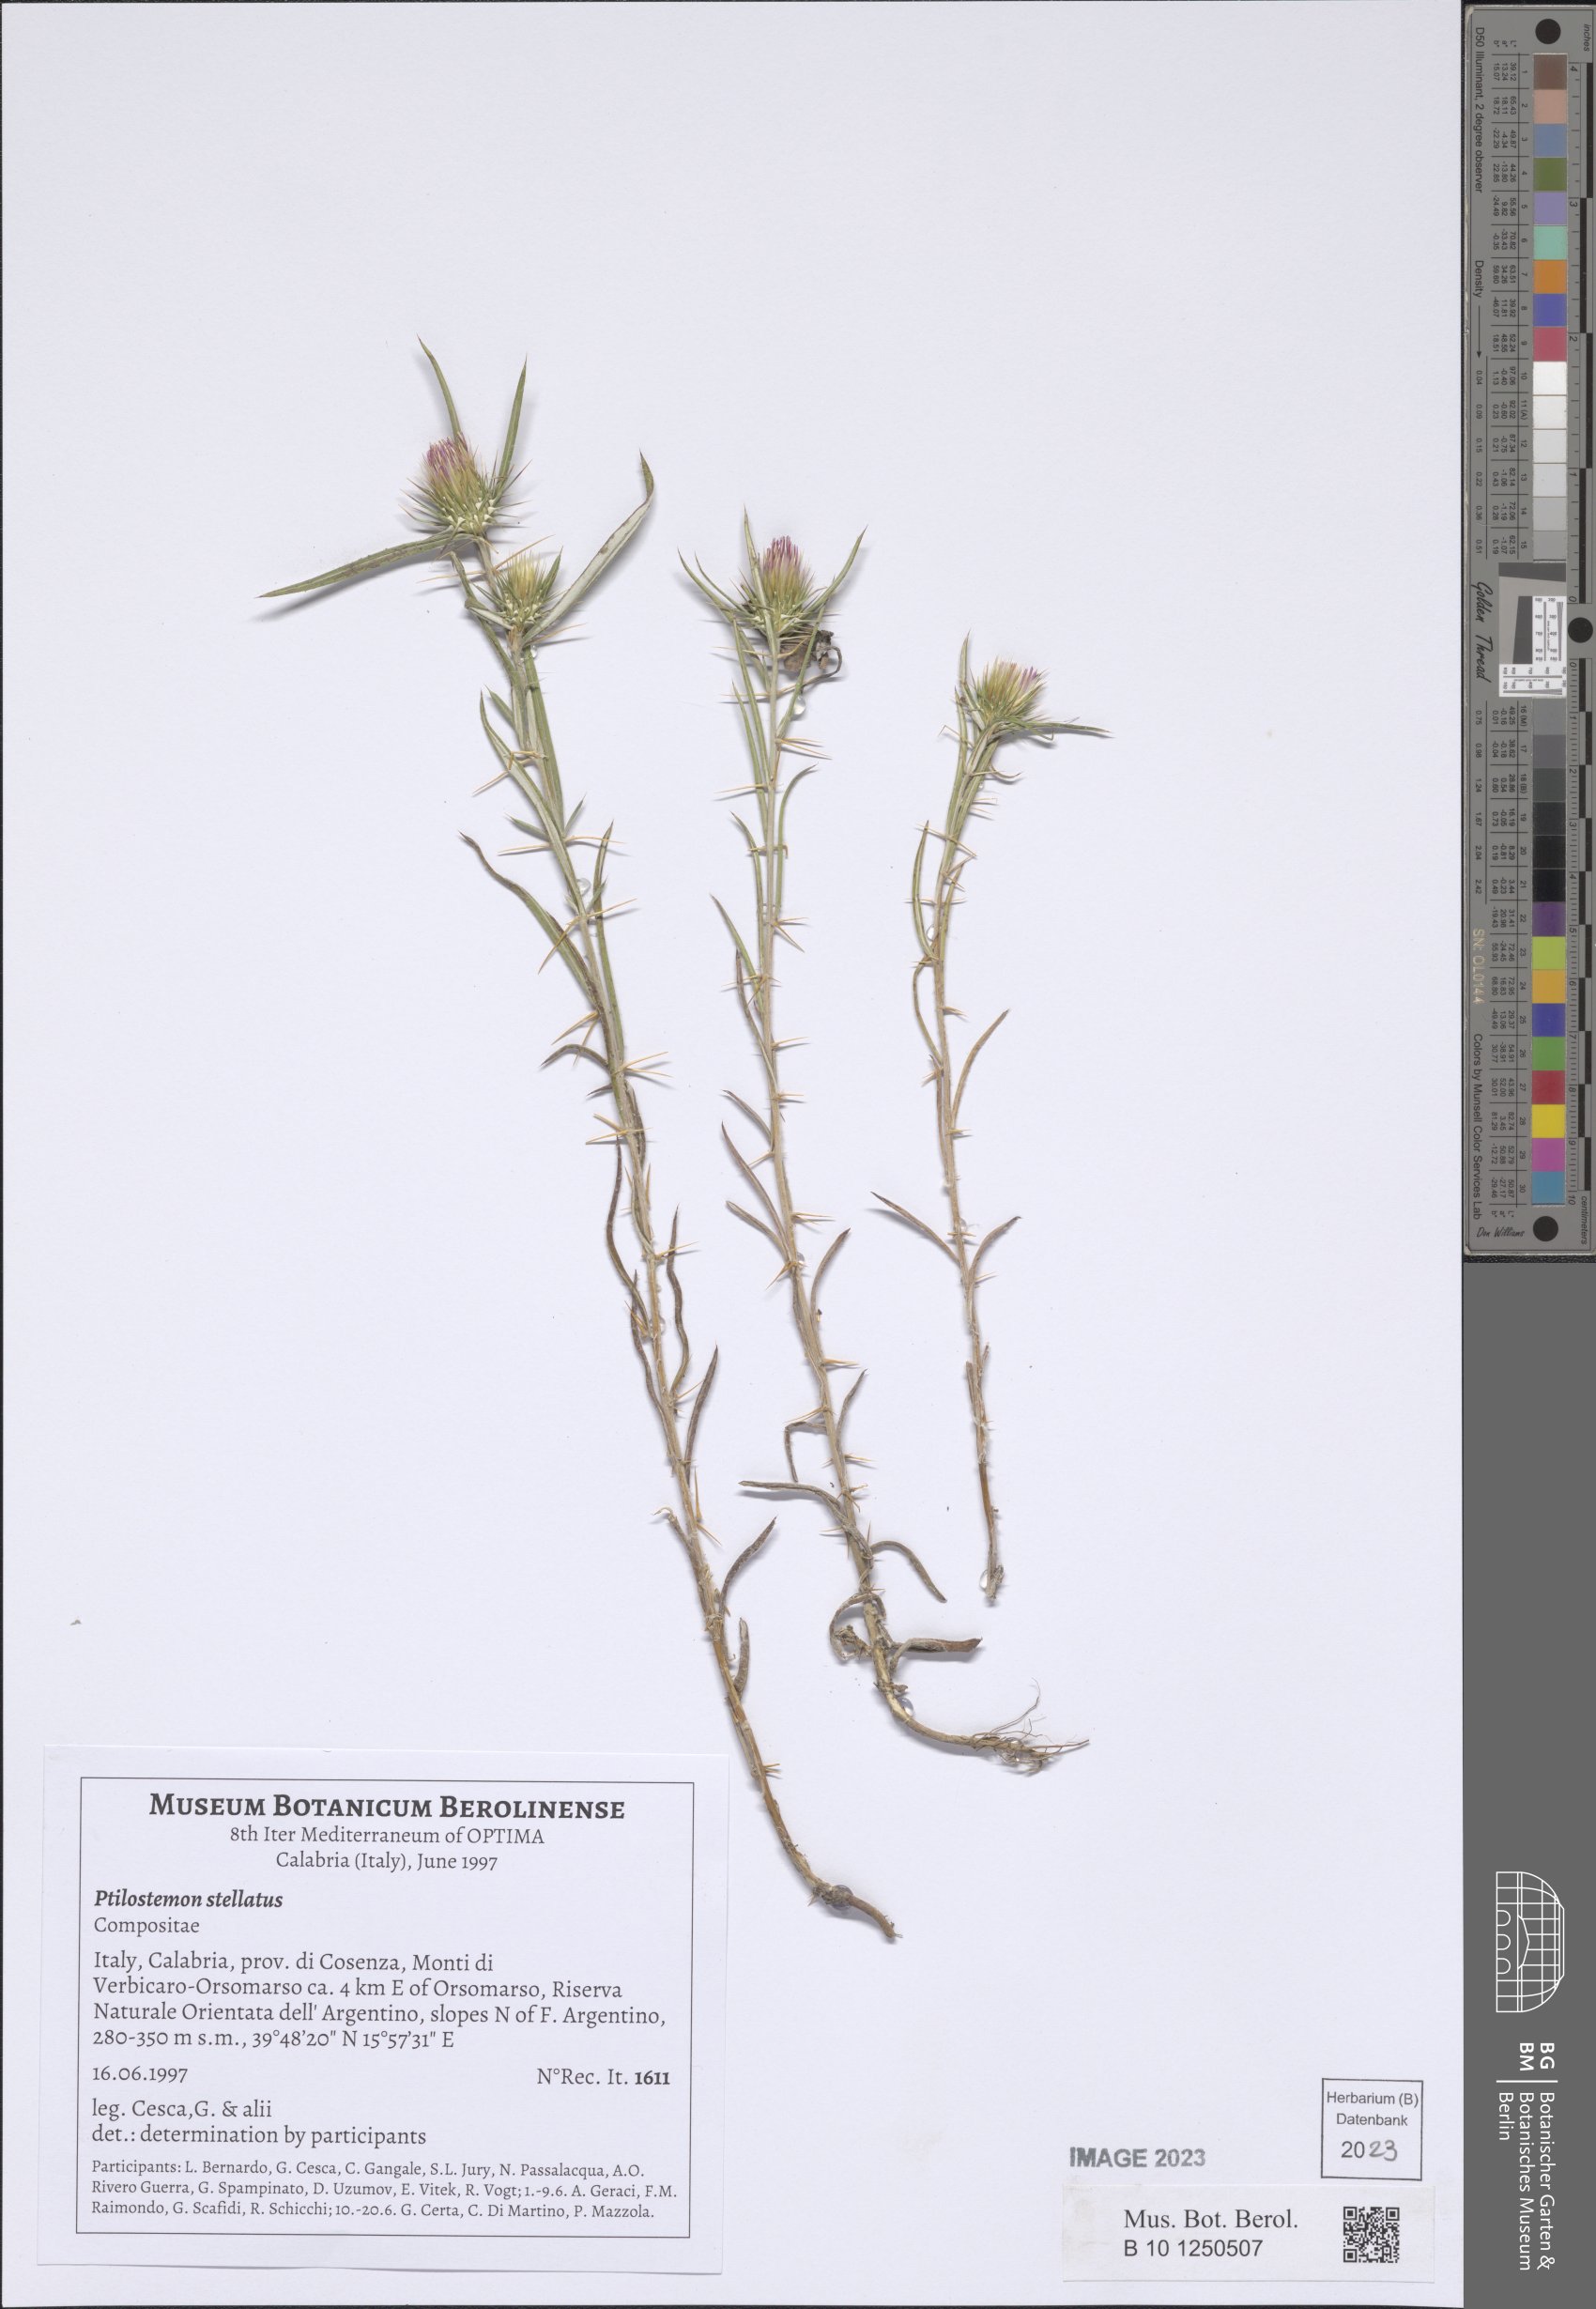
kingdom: Plantae
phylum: Tracheophyta
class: Magnoliopsida
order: Asterales
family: Asteraceae
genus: Ptilostemon
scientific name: Ptilostemon stellatus
